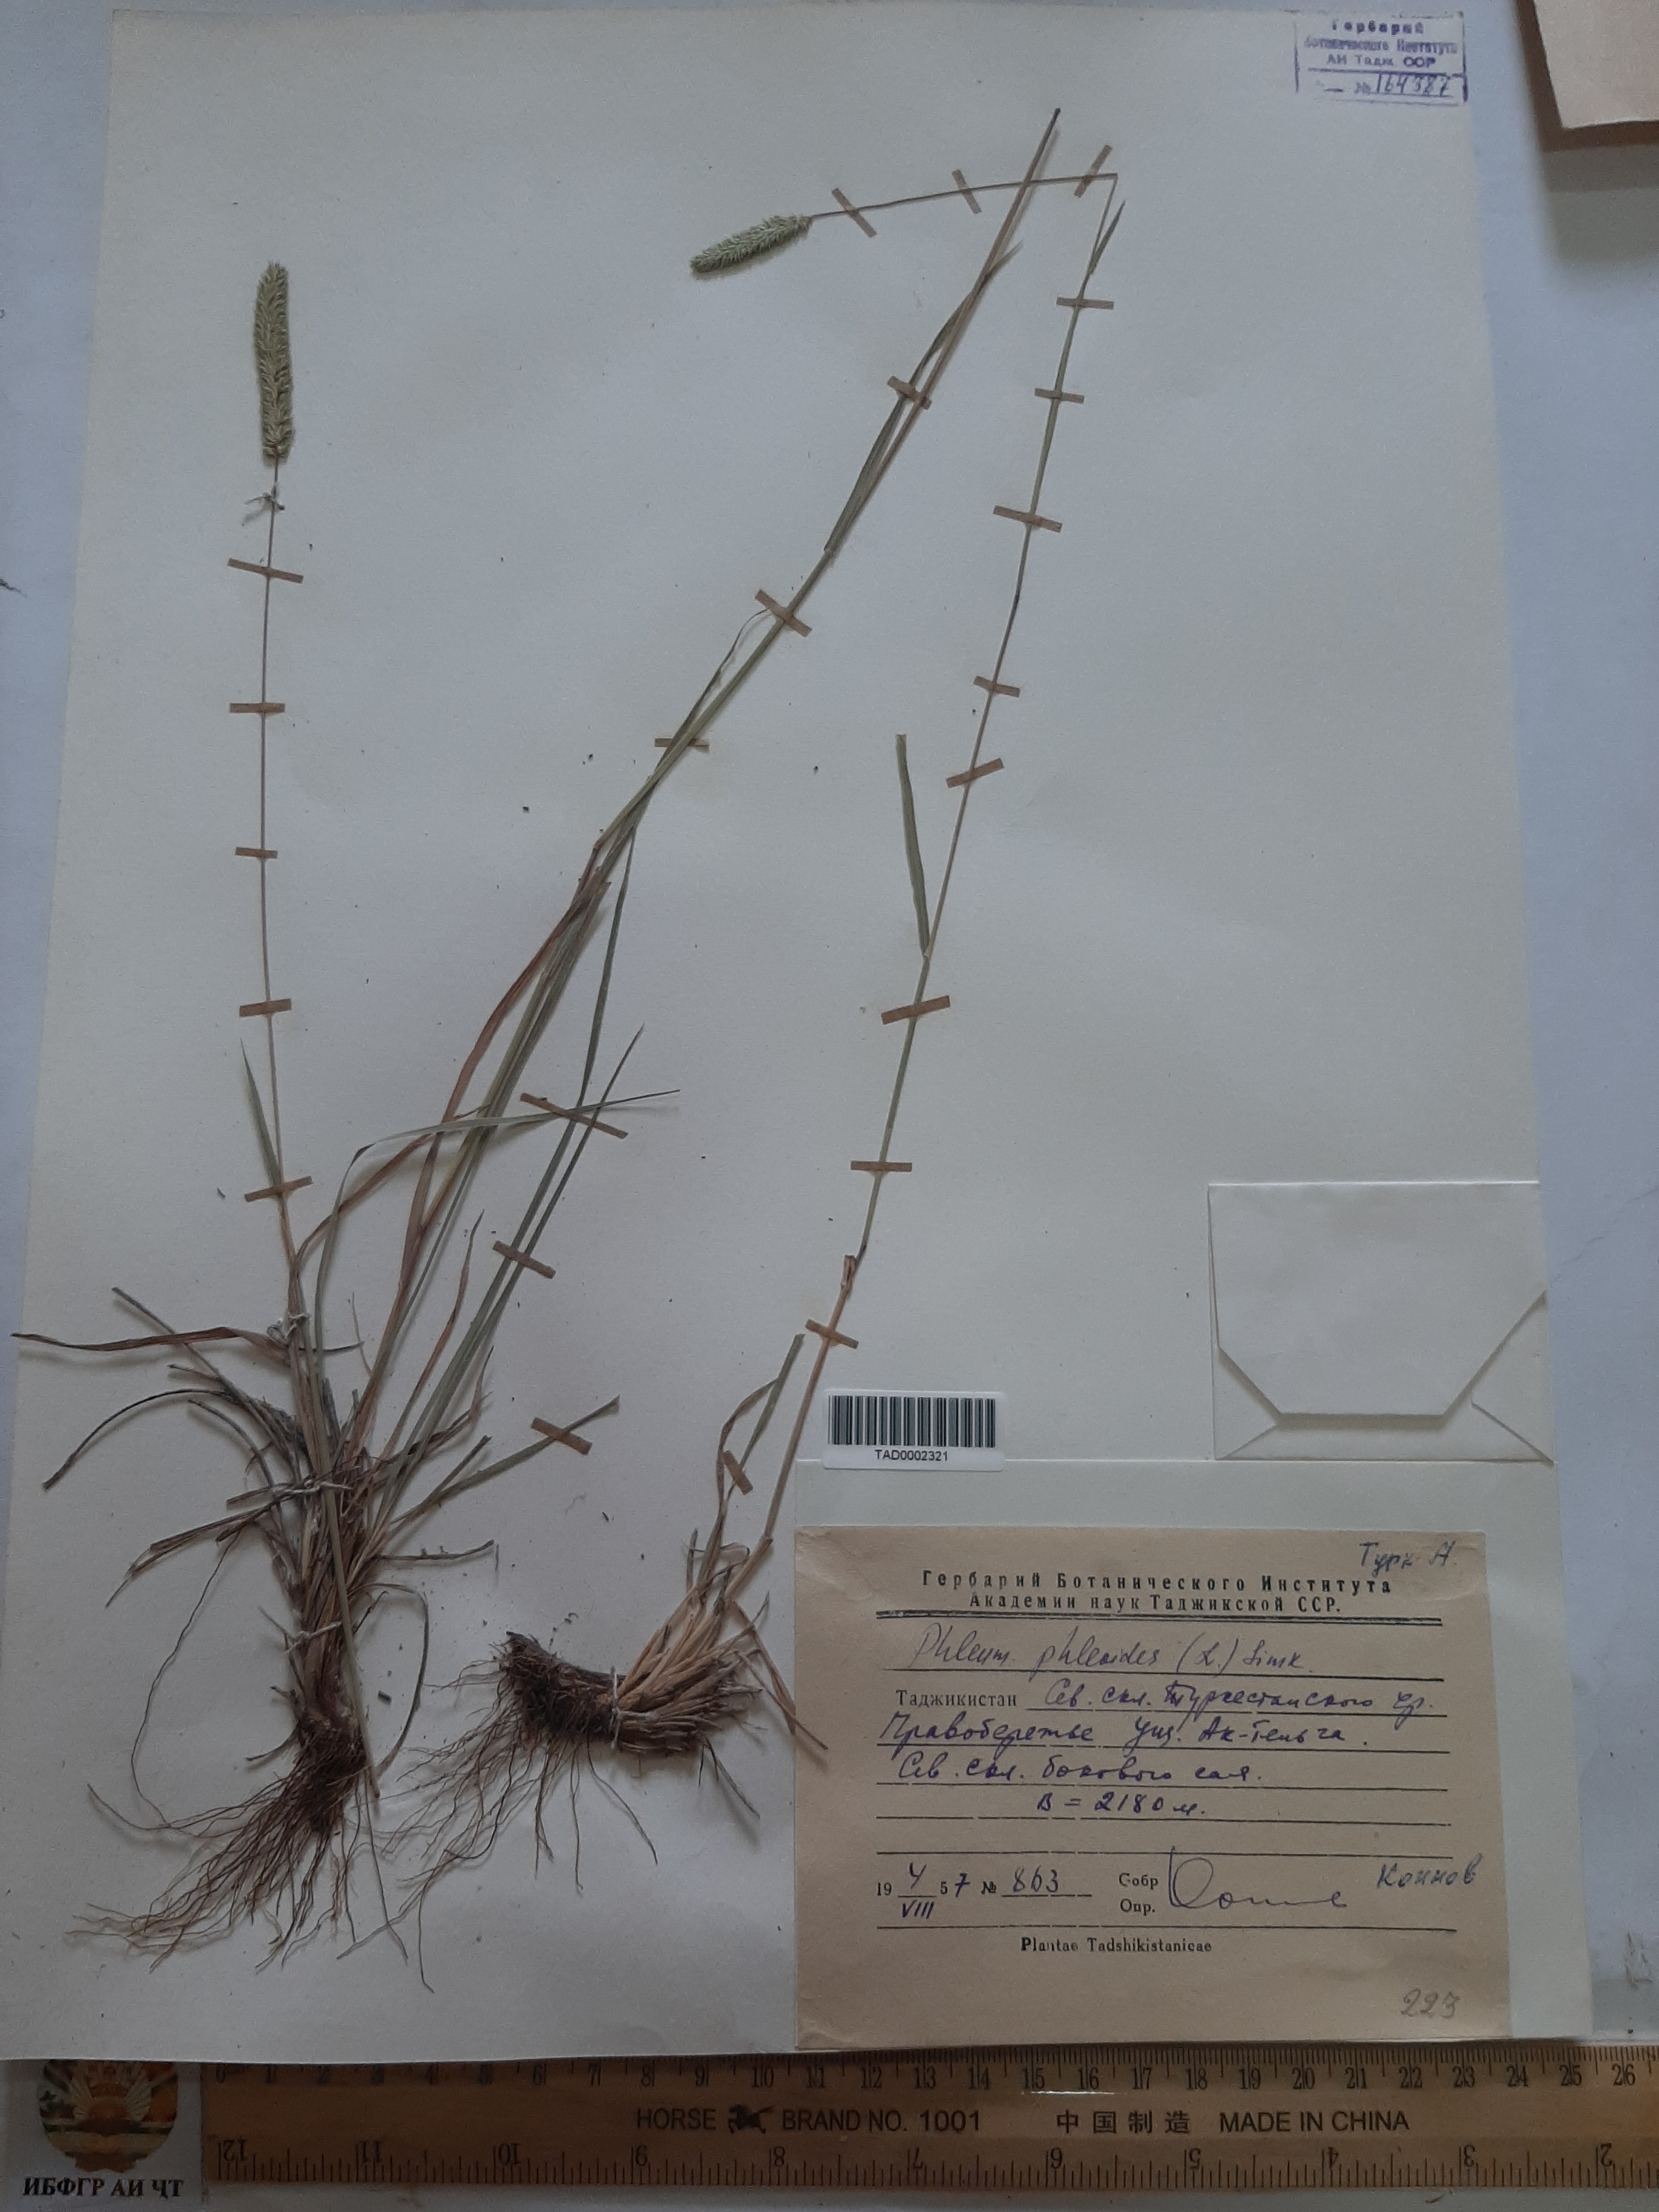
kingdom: Plantae
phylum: Tracheophyta
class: Liliopsida
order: Poales
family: Poaceae
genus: Phleum
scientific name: Phleum phleoides
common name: Purple-stem cat's-tail
